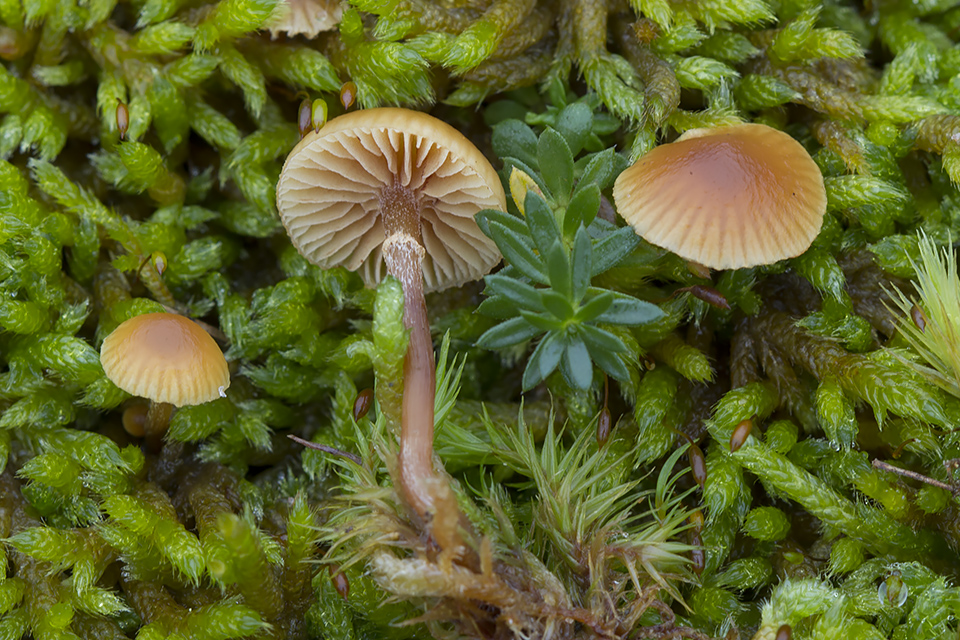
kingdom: Fungi
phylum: Basidiomycota
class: Agaricomycetes
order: Agaricales
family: Hymenogastraceae
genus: Galerina
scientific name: Galerina esteve-raventosii
